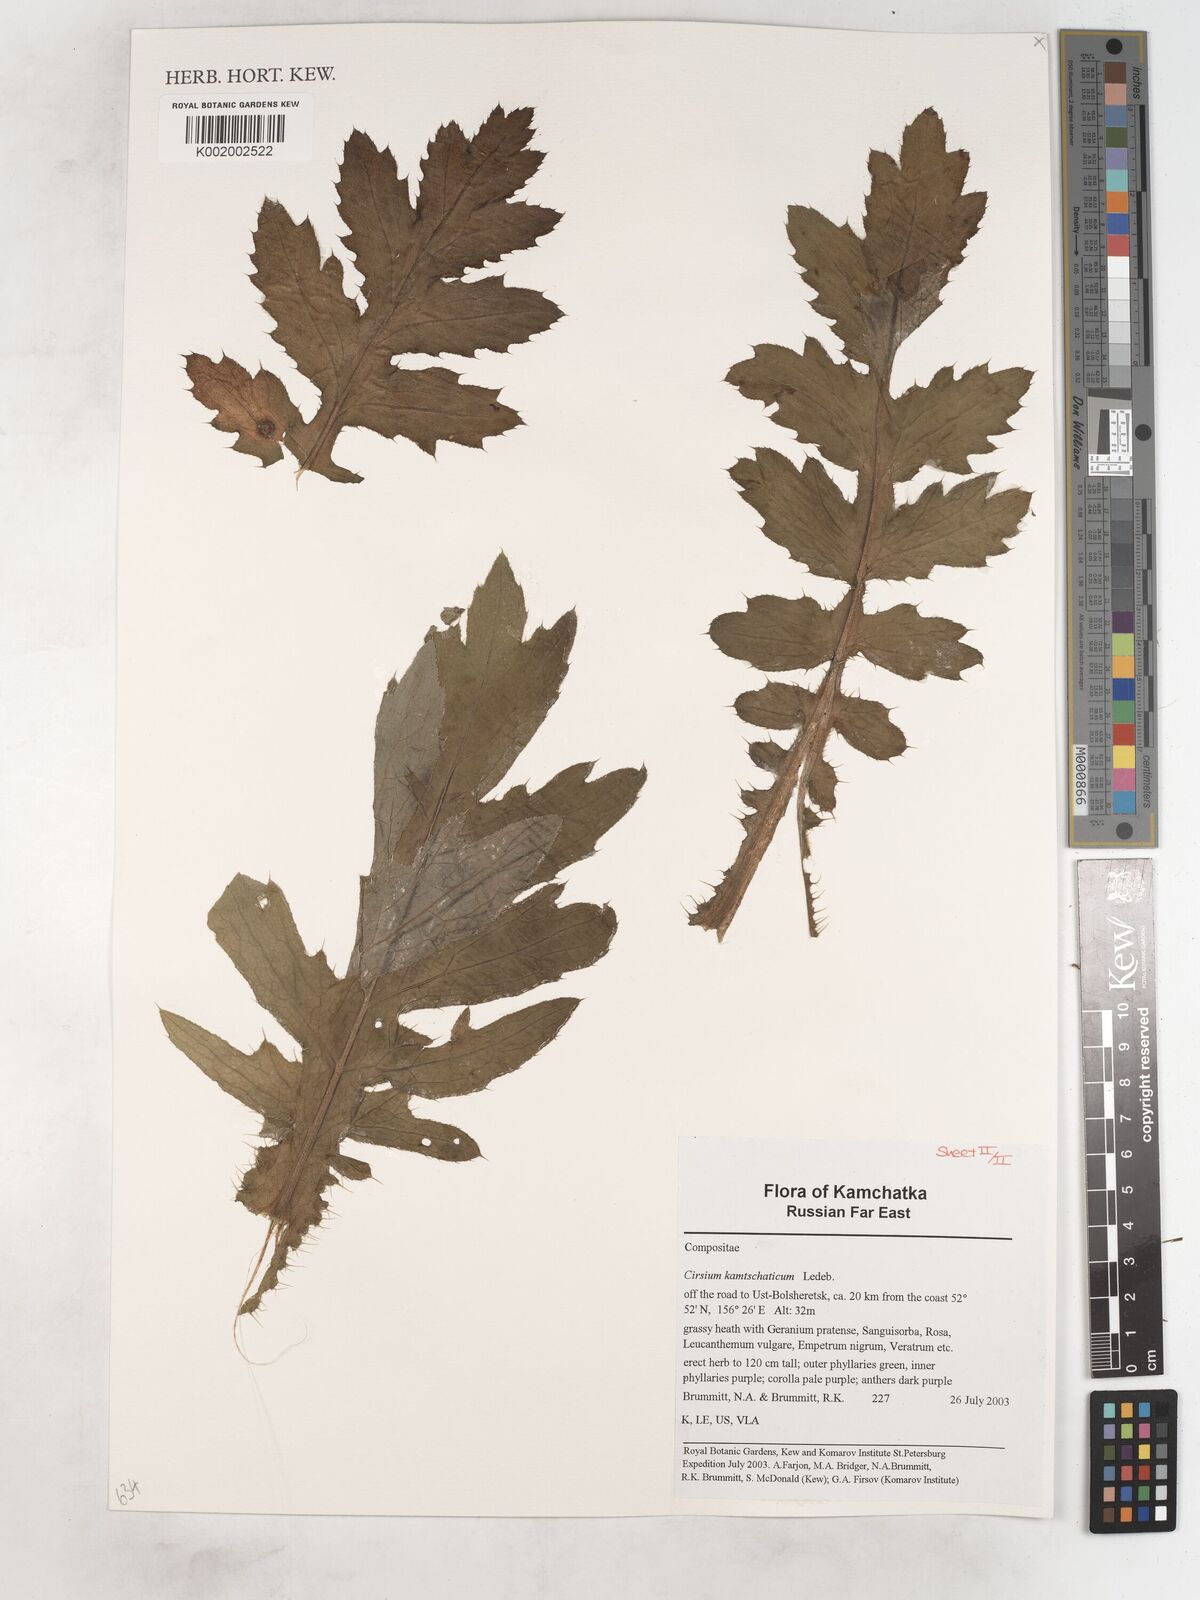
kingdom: Plantae
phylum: Tracheophyta
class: Magnoliopsida
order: Asterales
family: Asteraceae
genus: Cirsium
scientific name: Cirsium kamtschaticum
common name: Kamchatka thistle
